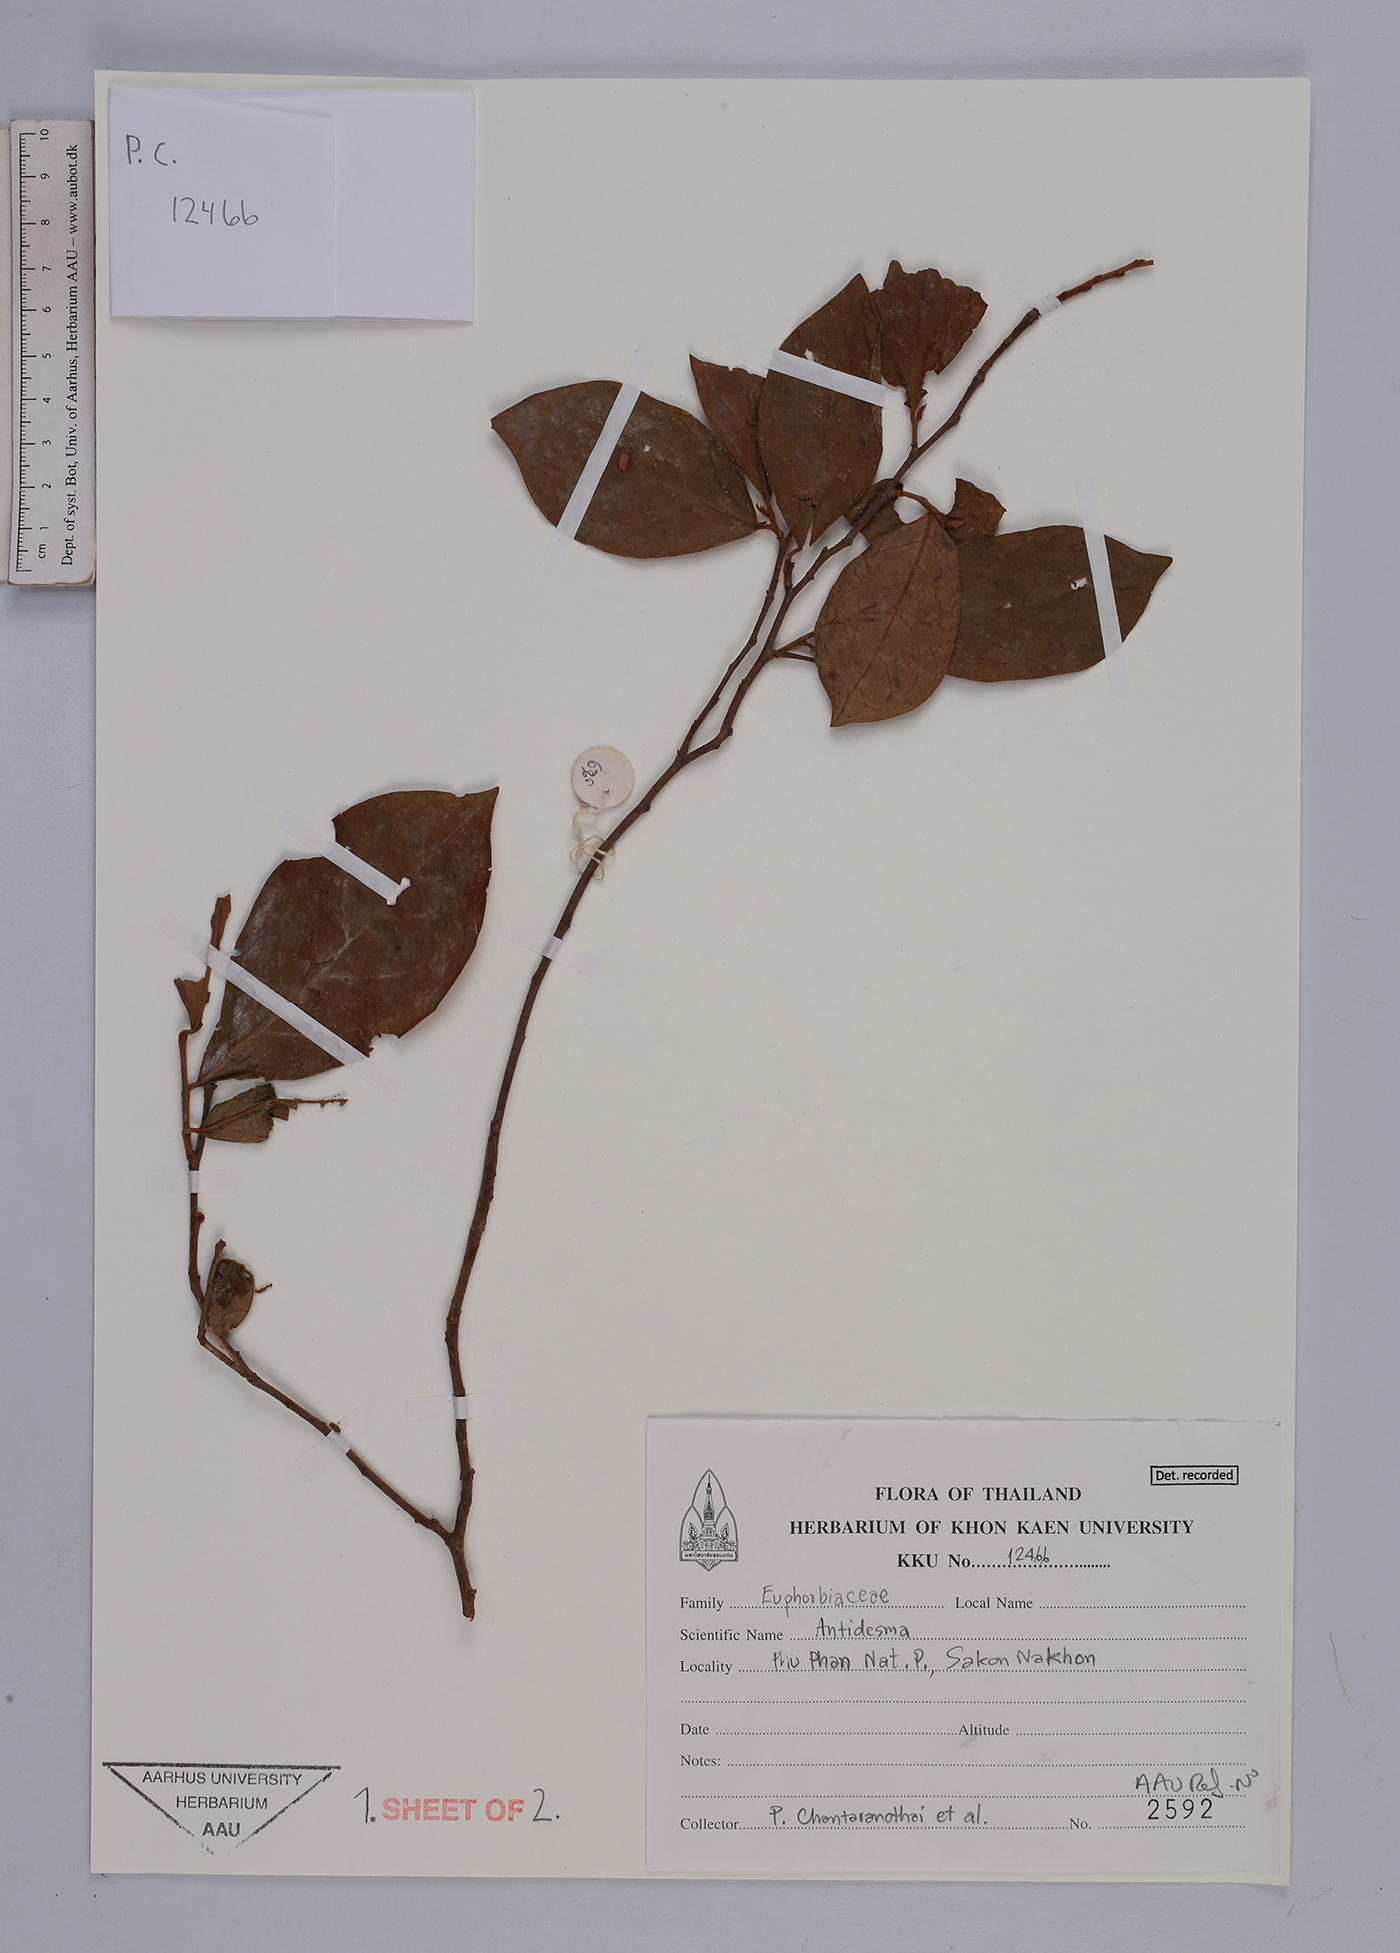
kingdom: Plantae
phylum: Tracheophyta
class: Magnoliopsida
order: Malpighiales
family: Phyllanthaceae
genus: Antidesma
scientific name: Antidesma
